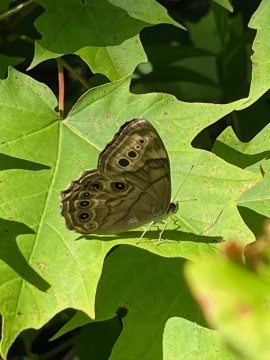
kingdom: Animalia
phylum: Arthropoda
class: Insecta
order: Lepidoptera
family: Nymphalidae
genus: Lethe
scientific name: Lethe anthedon
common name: Northern Pearly-Eye
